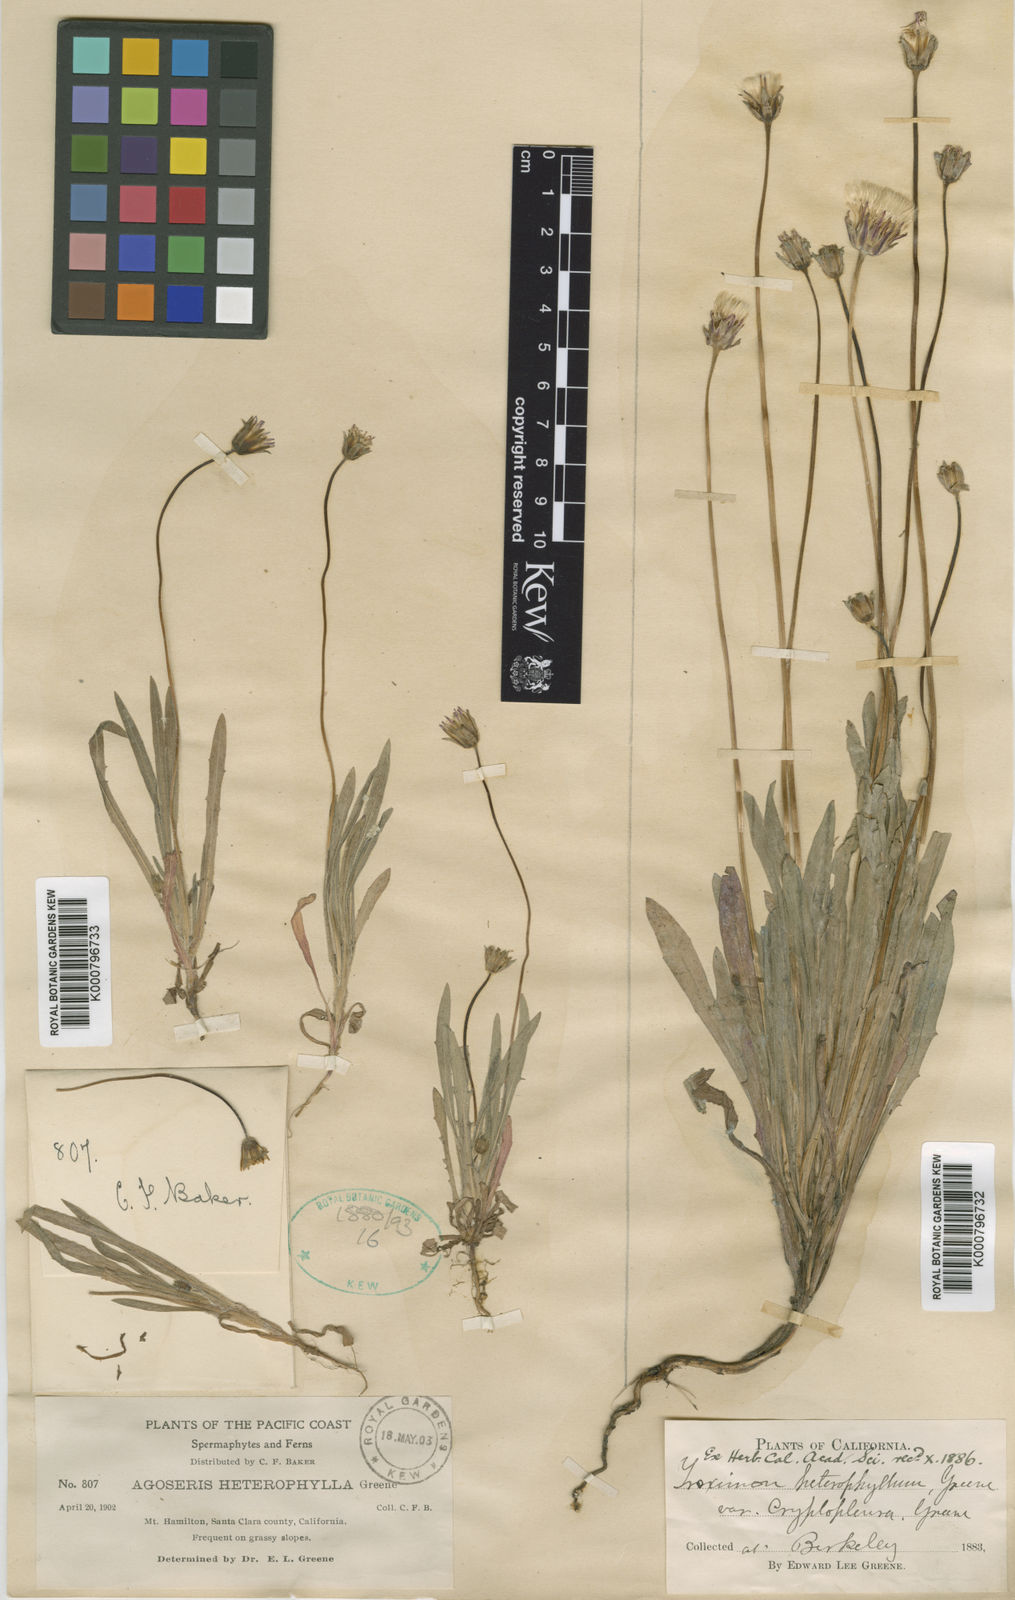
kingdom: Plantae
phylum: Tracheophyta
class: Magnoliopsida
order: Asterales
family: Asteraceae
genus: Agoseris
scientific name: Agoseris heterophylla
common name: Annual agoseris
